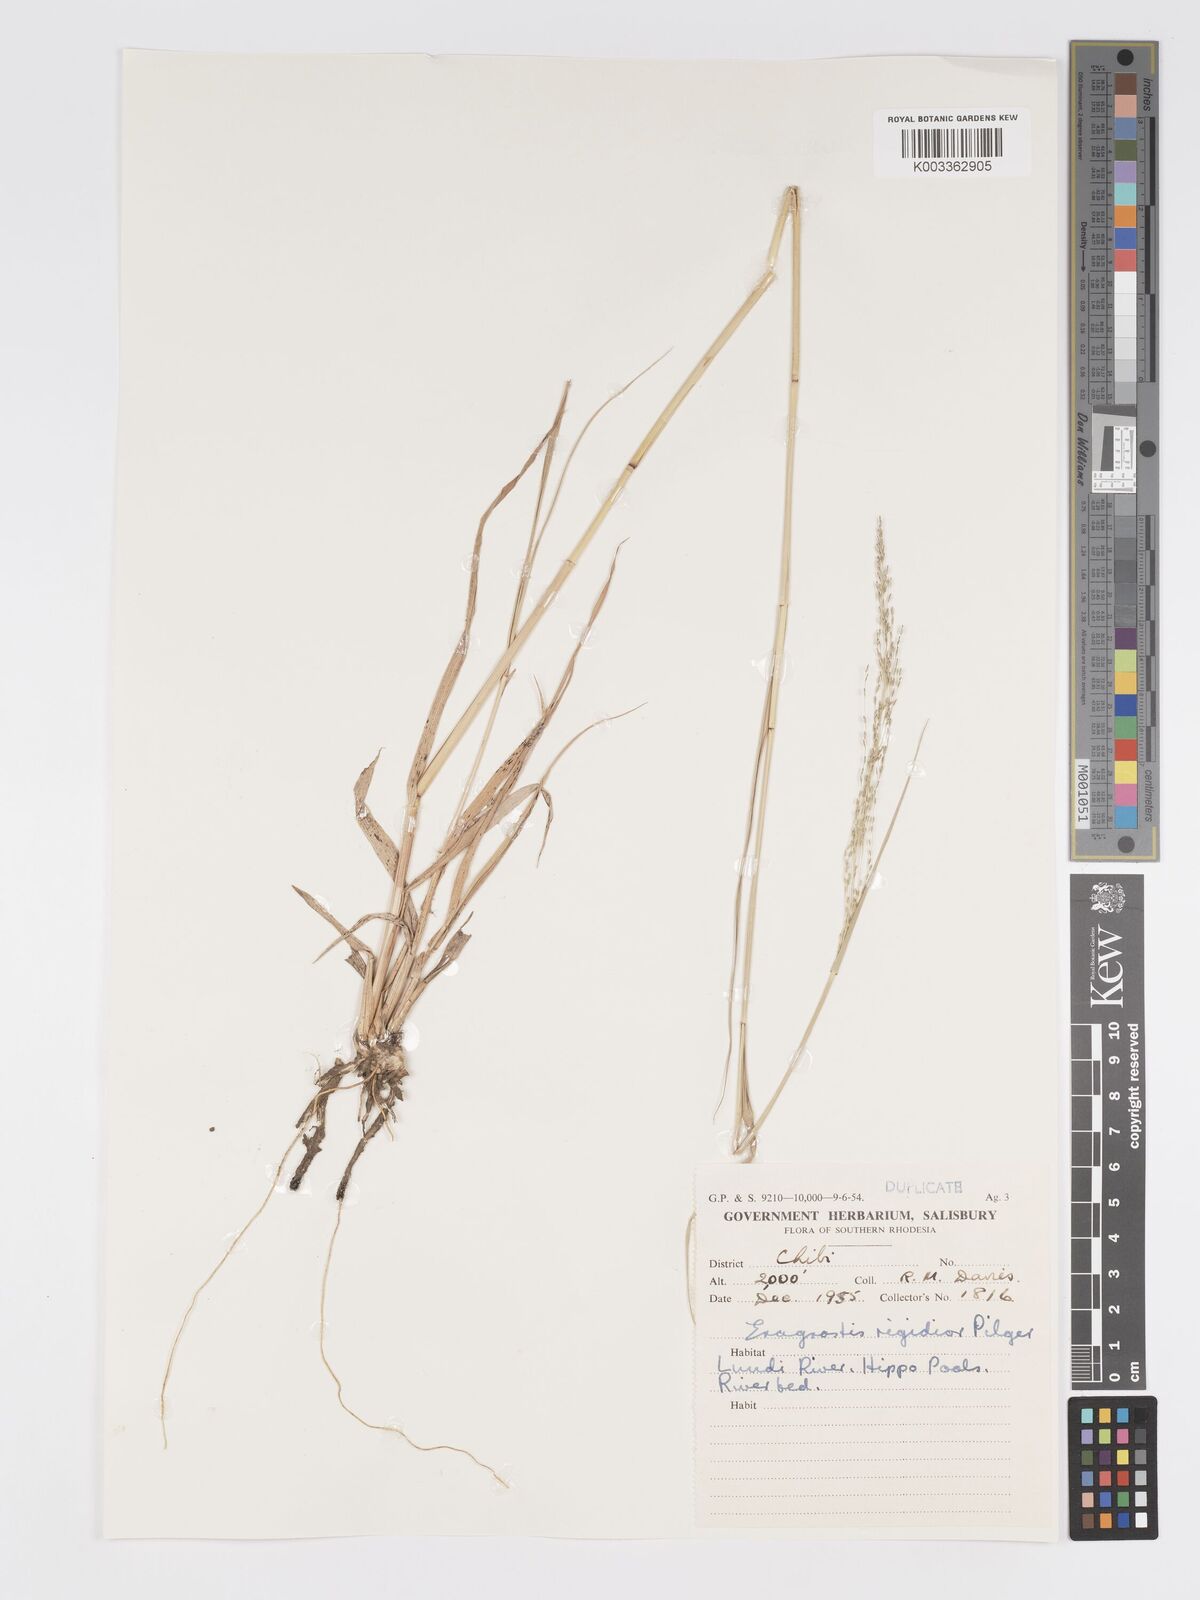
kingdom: Plantae
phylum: Tracheophyta
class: Liliopsida
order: Poales
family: Poaceae
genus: Eragrostis
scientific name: Eragrostis cylindriflora
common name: Cylinderflower lovegrass
